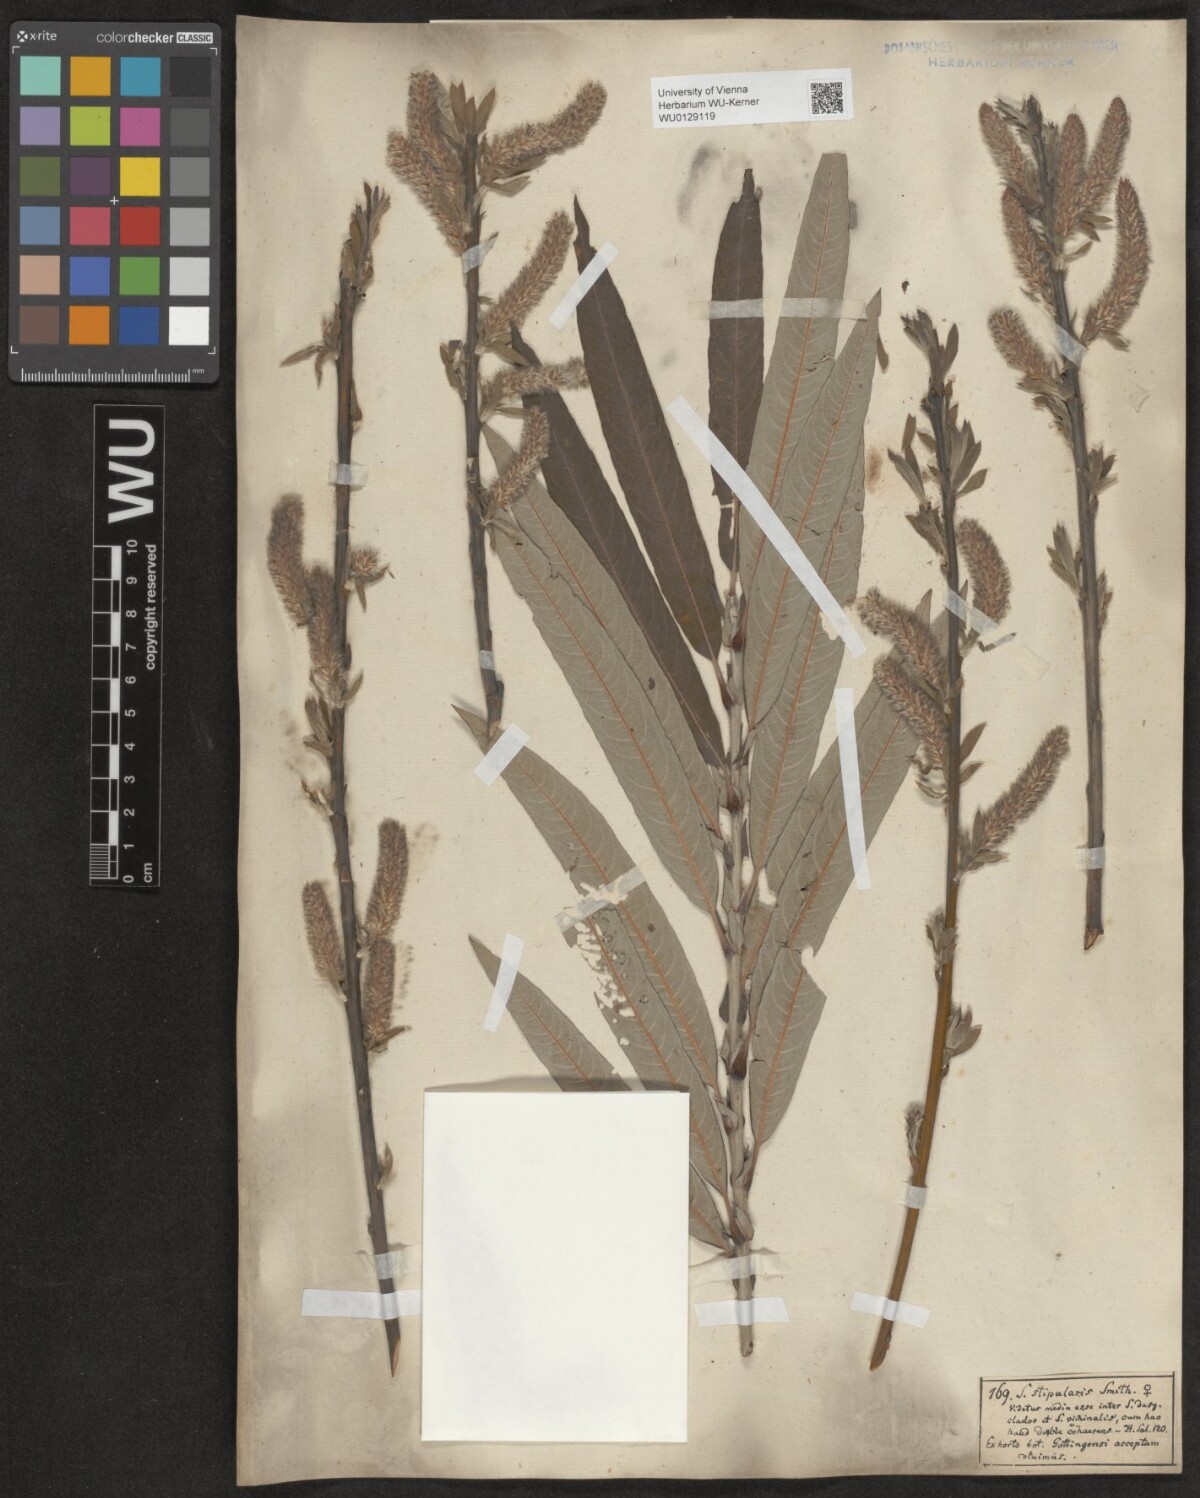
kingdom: Plantae
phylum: Tracheophyta
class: Magnoliopsida
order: Malpighiales
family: Salicaceae
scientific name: Salicaceae
